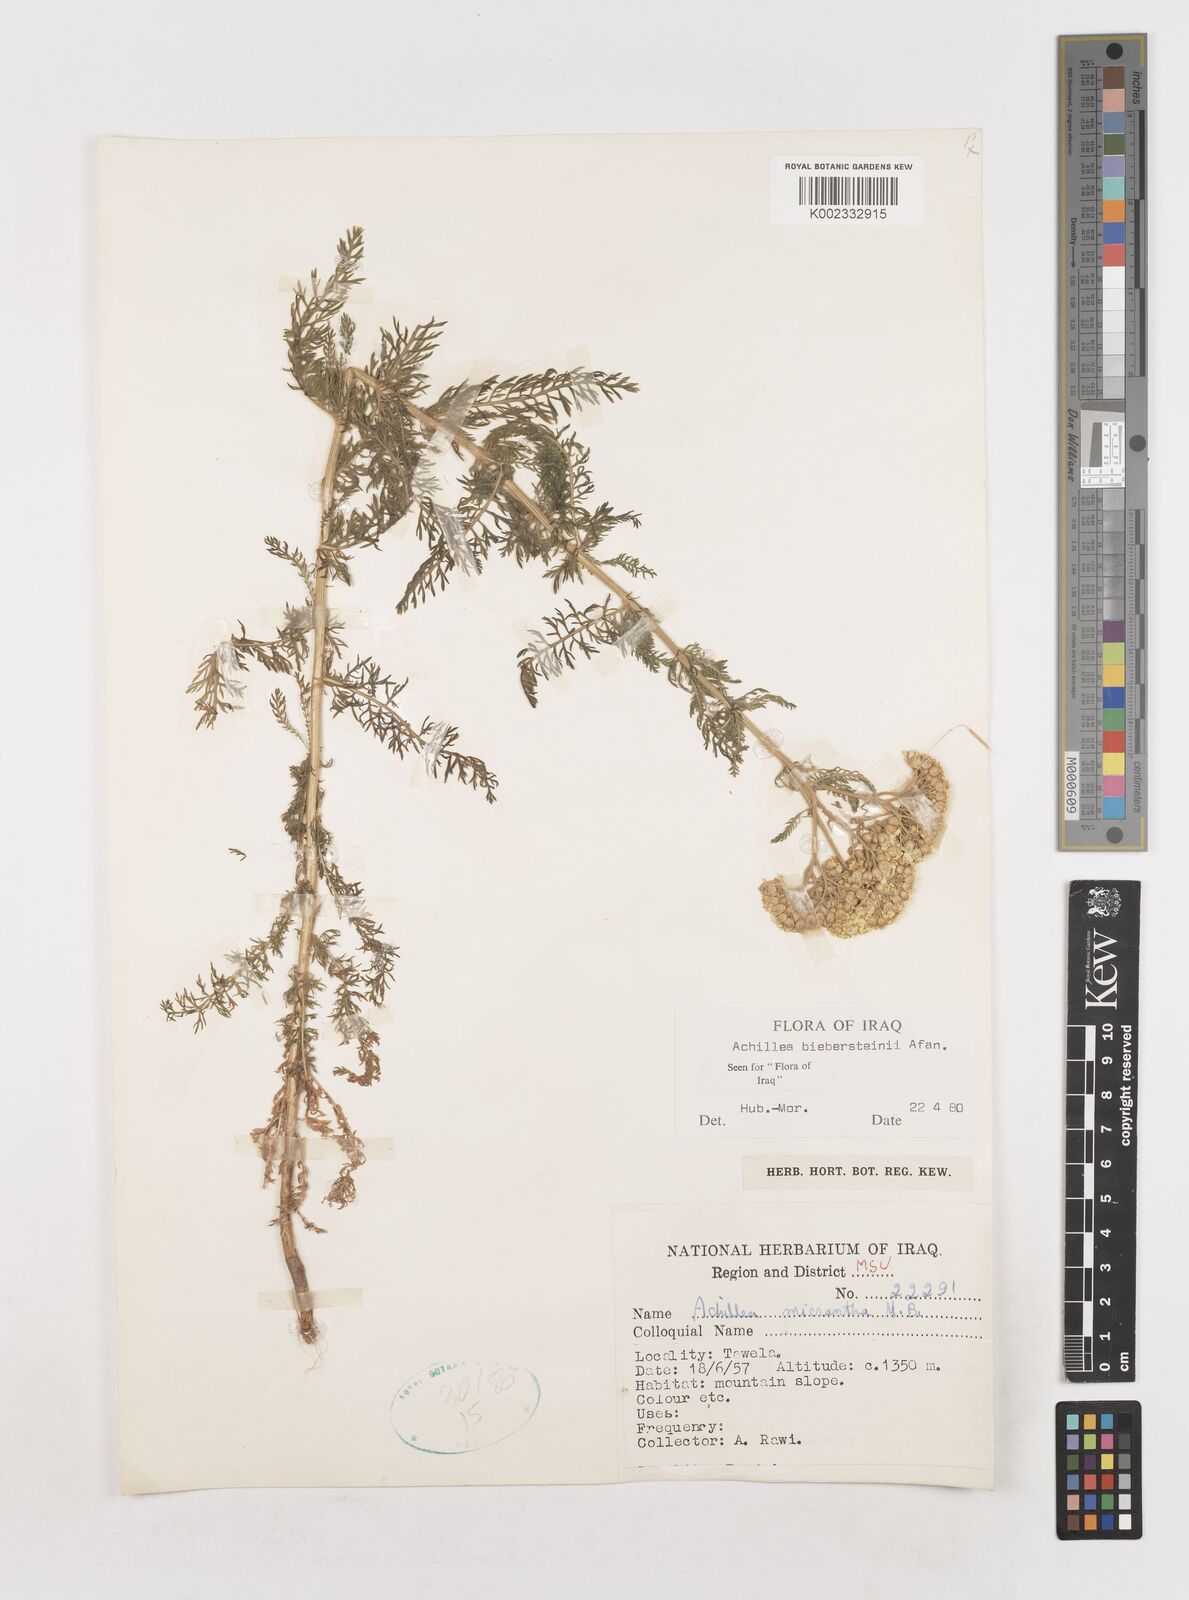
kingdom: Plantae
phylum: Tracheophyta
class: Magnoliopsida
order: Asterales
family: Asteraceae
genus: Achillea
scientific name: Achillea arabica
